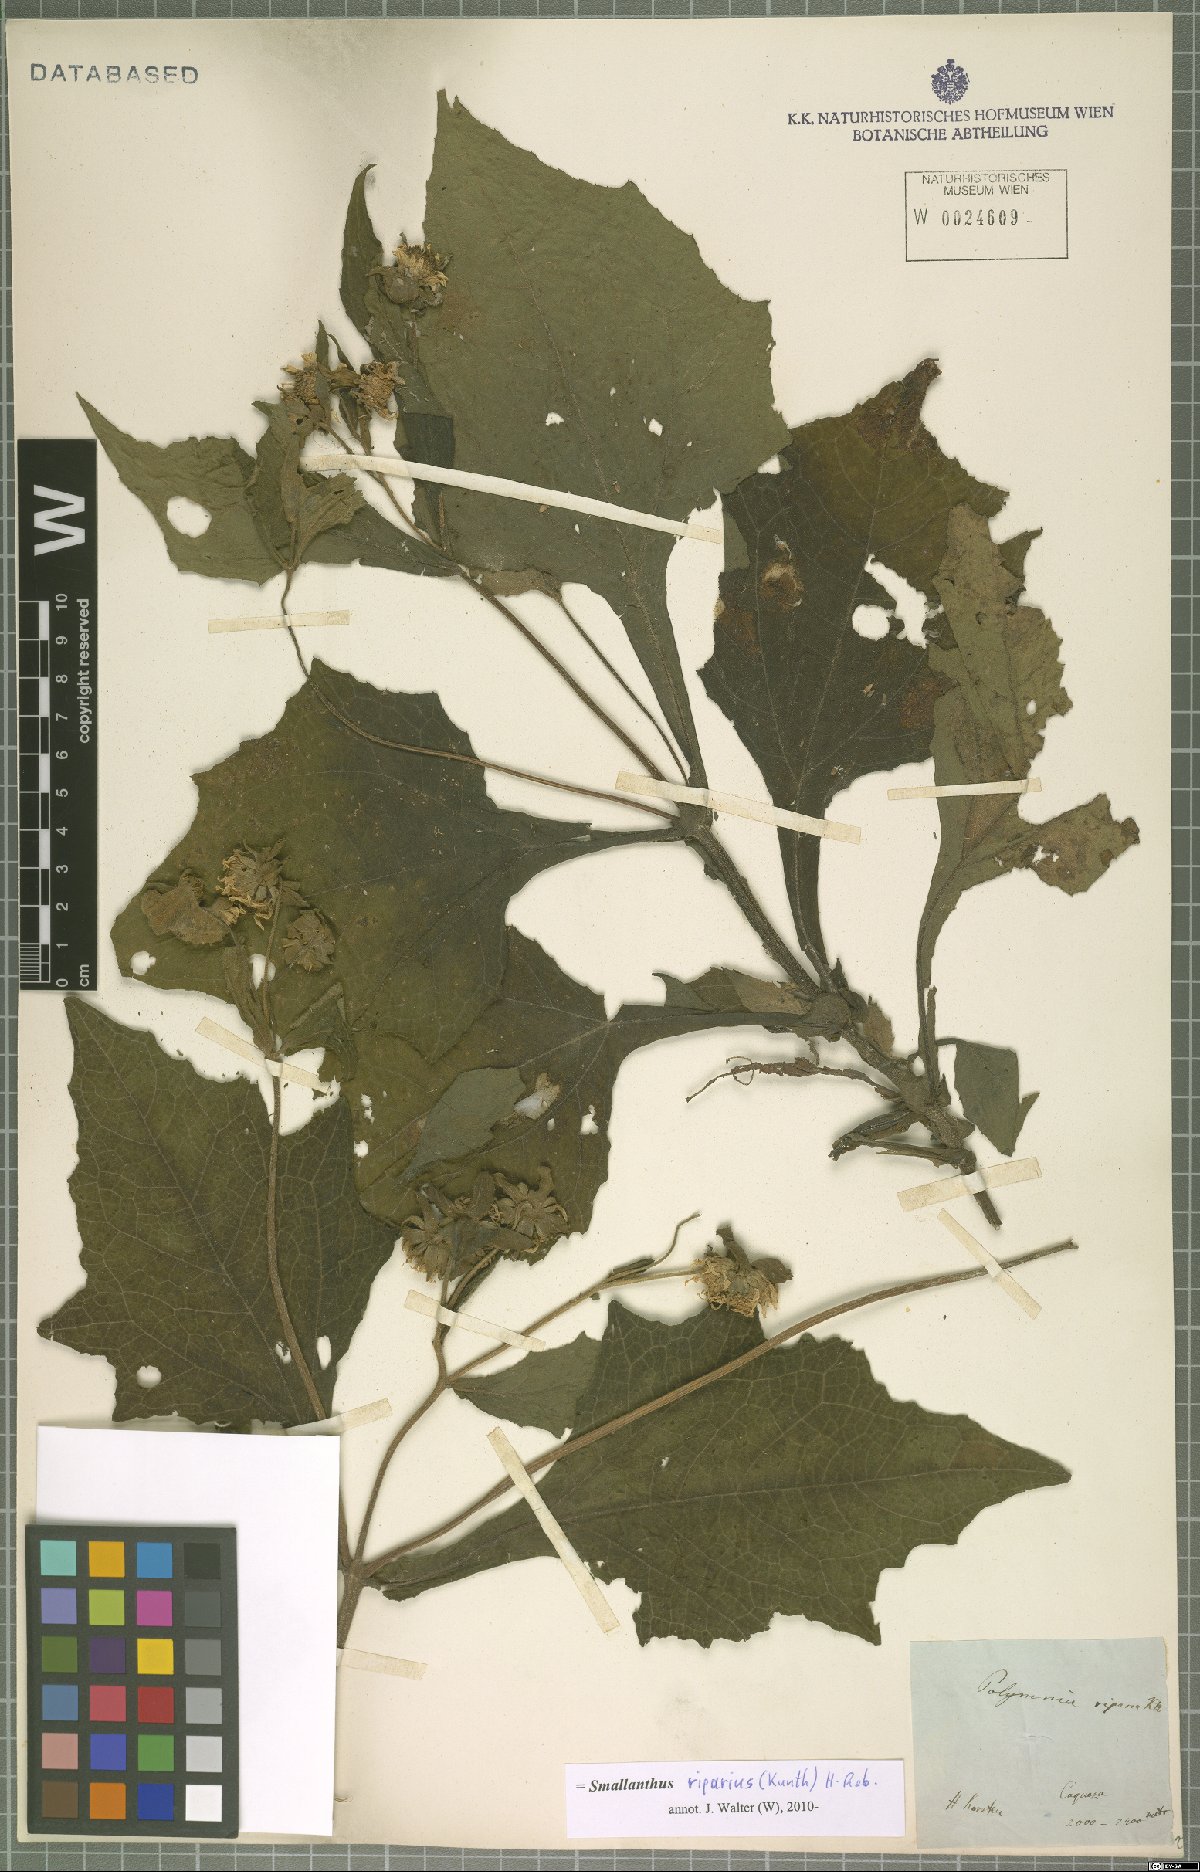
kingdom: Plantae
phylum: Tracheophyta
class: Magnoliopsida
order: Asterales
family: Asteraceae
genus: Smallanthus
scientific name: Smallanthus riparius
